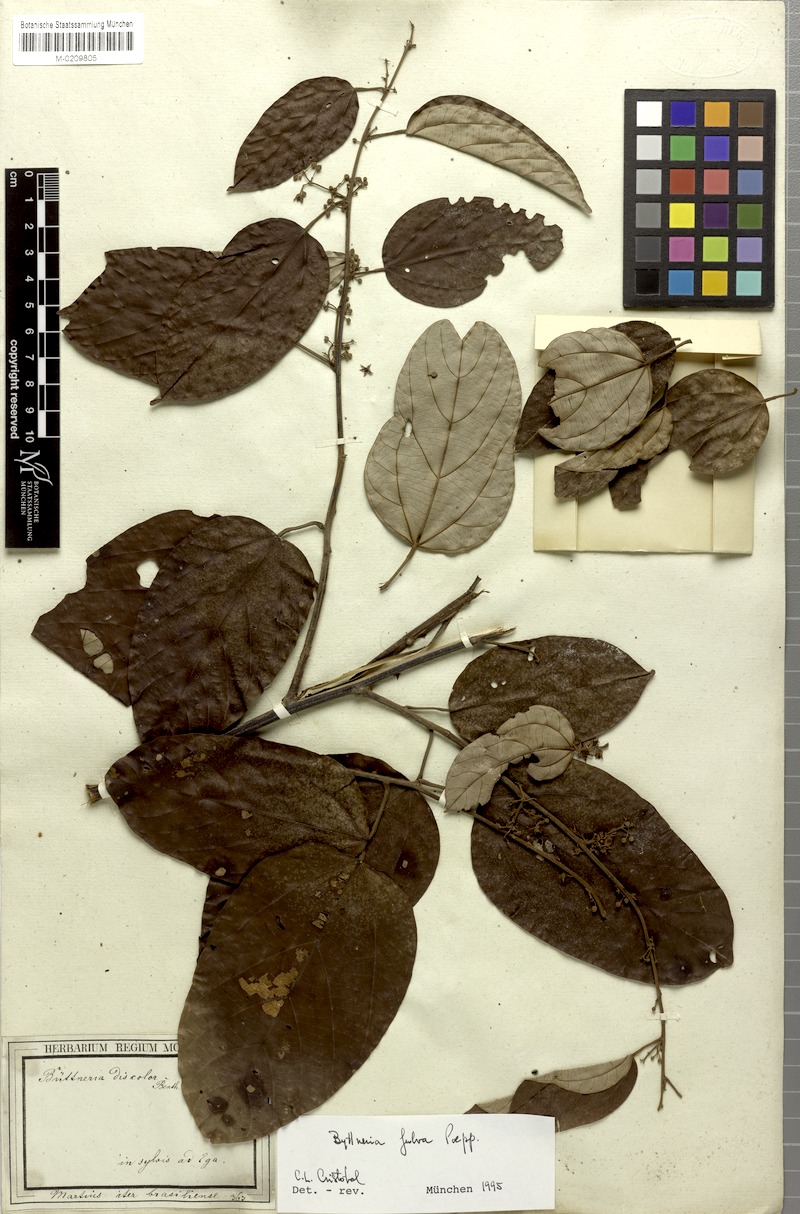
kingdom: Plantae
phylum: Tracheophyta
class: Magnoliopsida
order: Malvales
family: Malvaceae
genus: Byttneria
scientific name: Byttneria fulva
